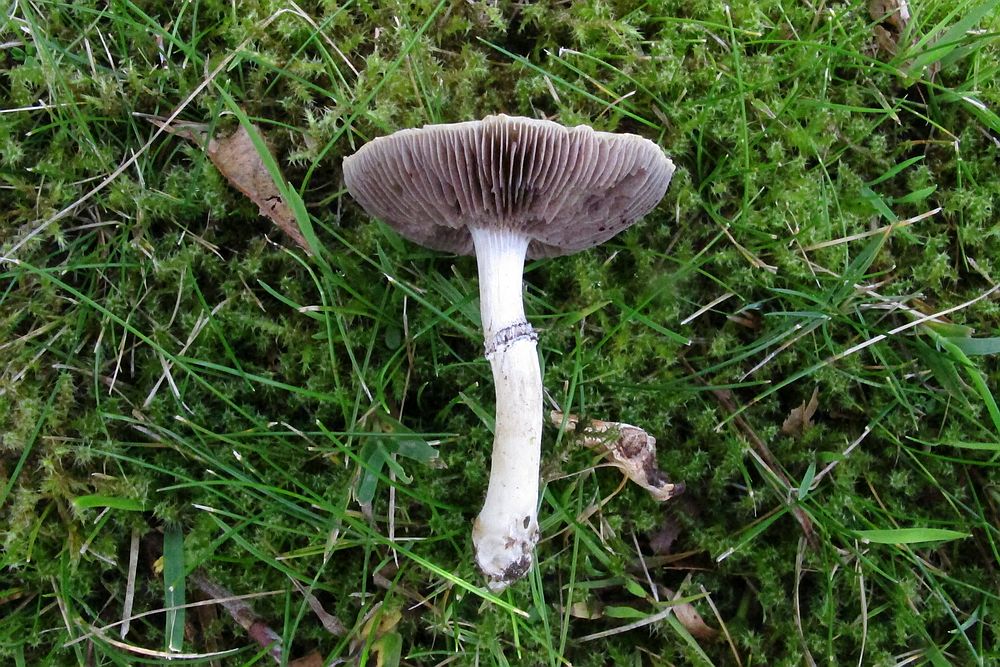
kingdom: Fungi
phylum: Basidiomycota
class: Agaricomycetes
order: Agaricales
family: Hymenogastraceae
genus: Psilocybe
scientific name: Psilocybe coronilla
